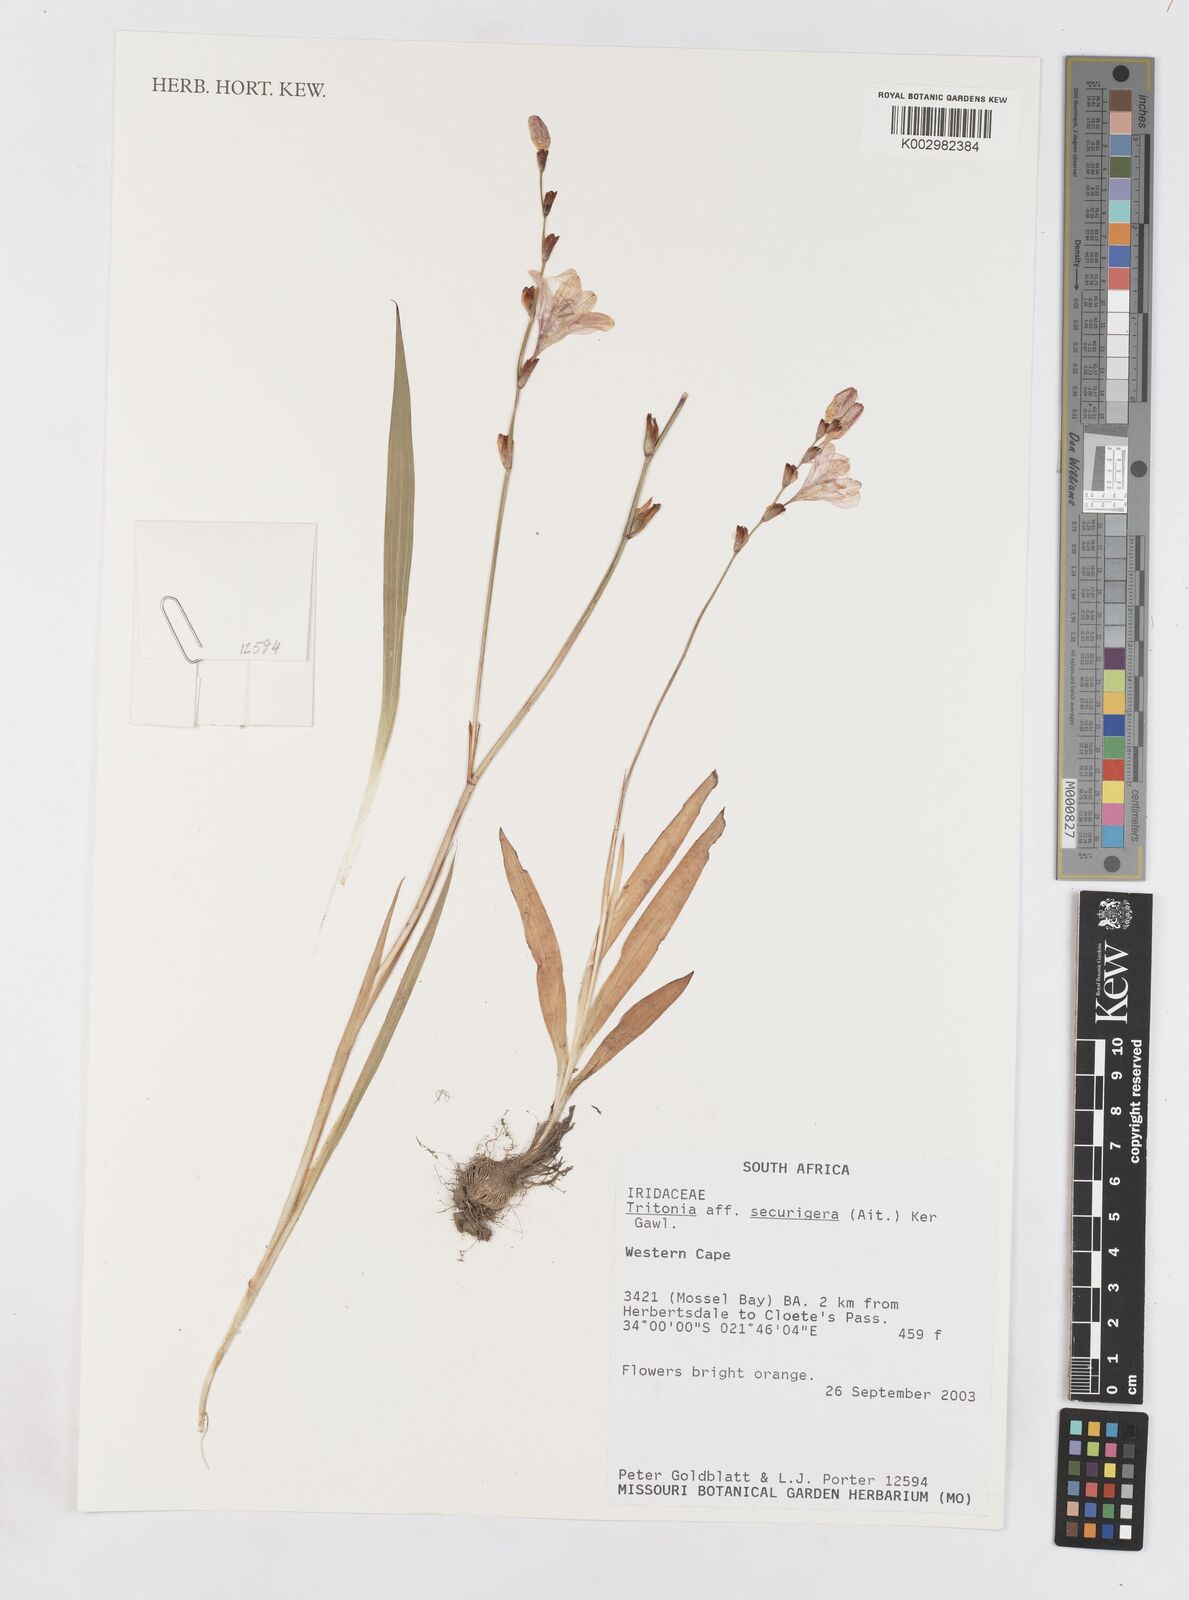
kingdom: Plantae
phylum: Tracheophyta
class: Liliopsida
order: Asparagales
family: Iridaceae
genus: Tritonia
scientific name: Tritonia securigera
